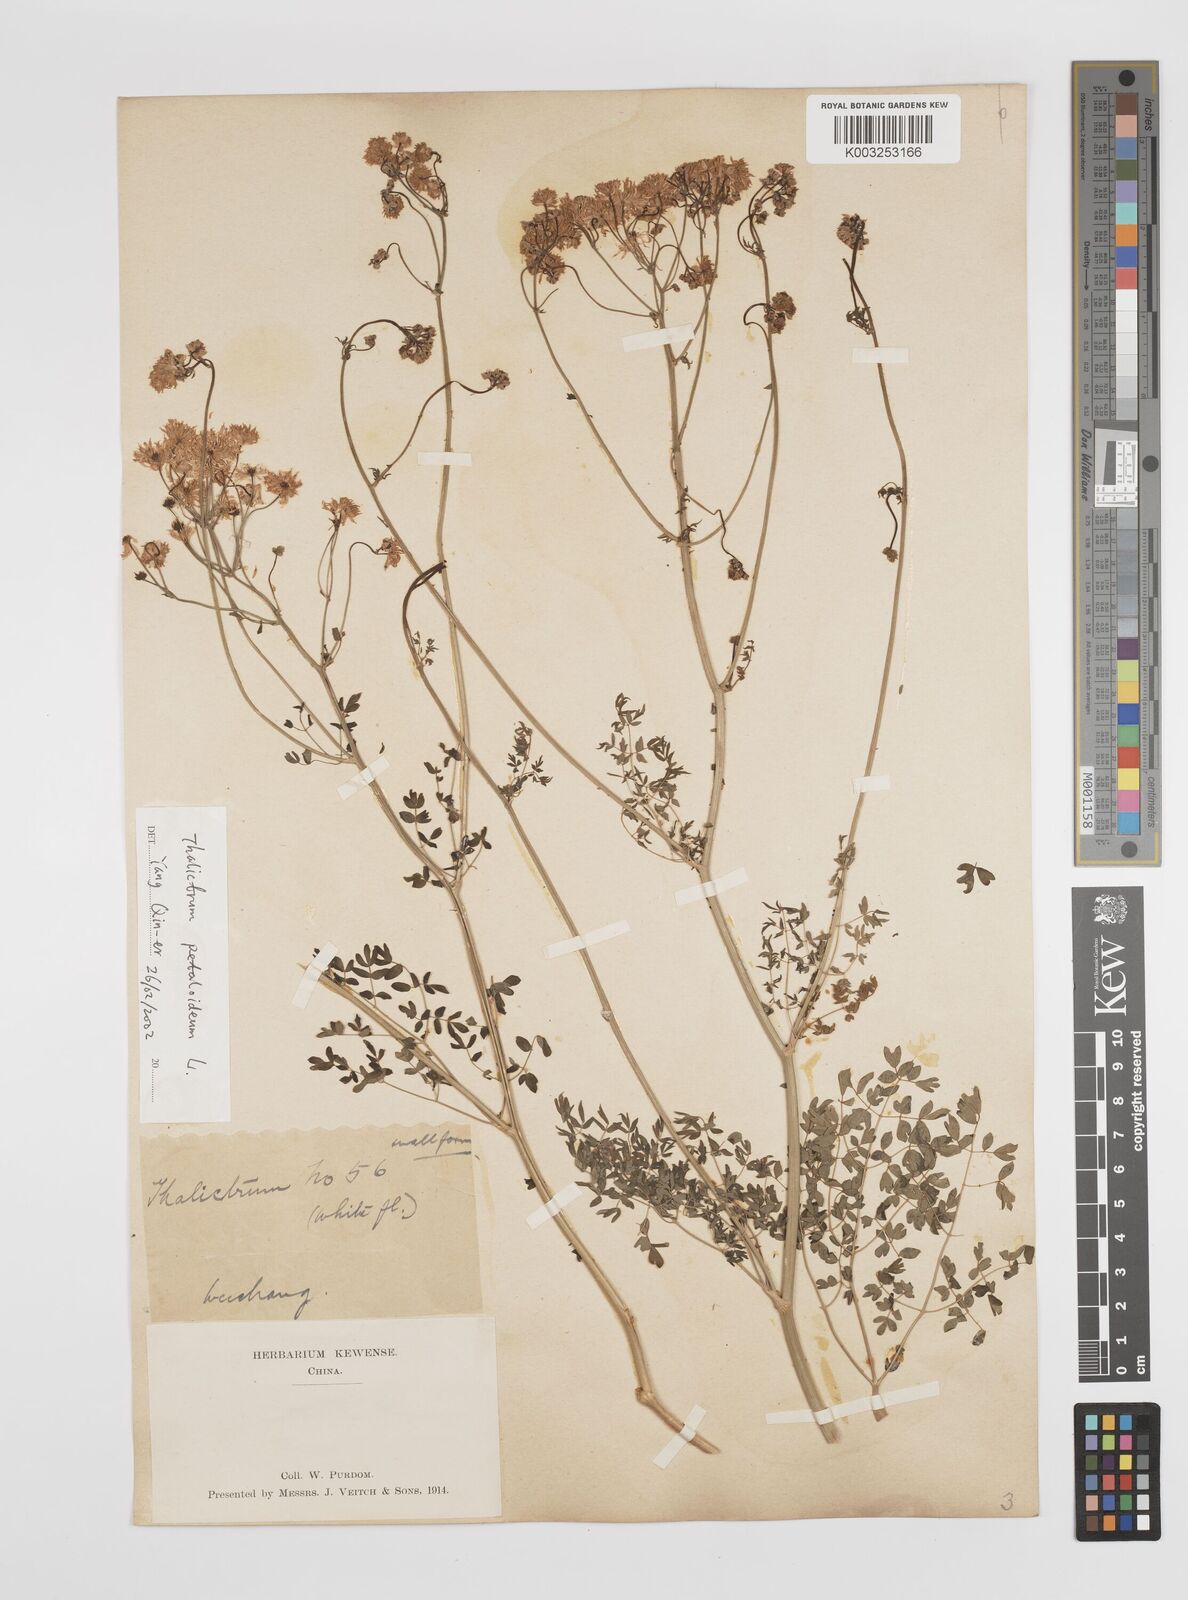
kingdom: Plantae
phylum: Tracheophyta
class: Magnoliopsida
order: Ranunculales
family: Ranunculaceae
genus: Thalictrum
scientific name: Thalictrum petaloideum
